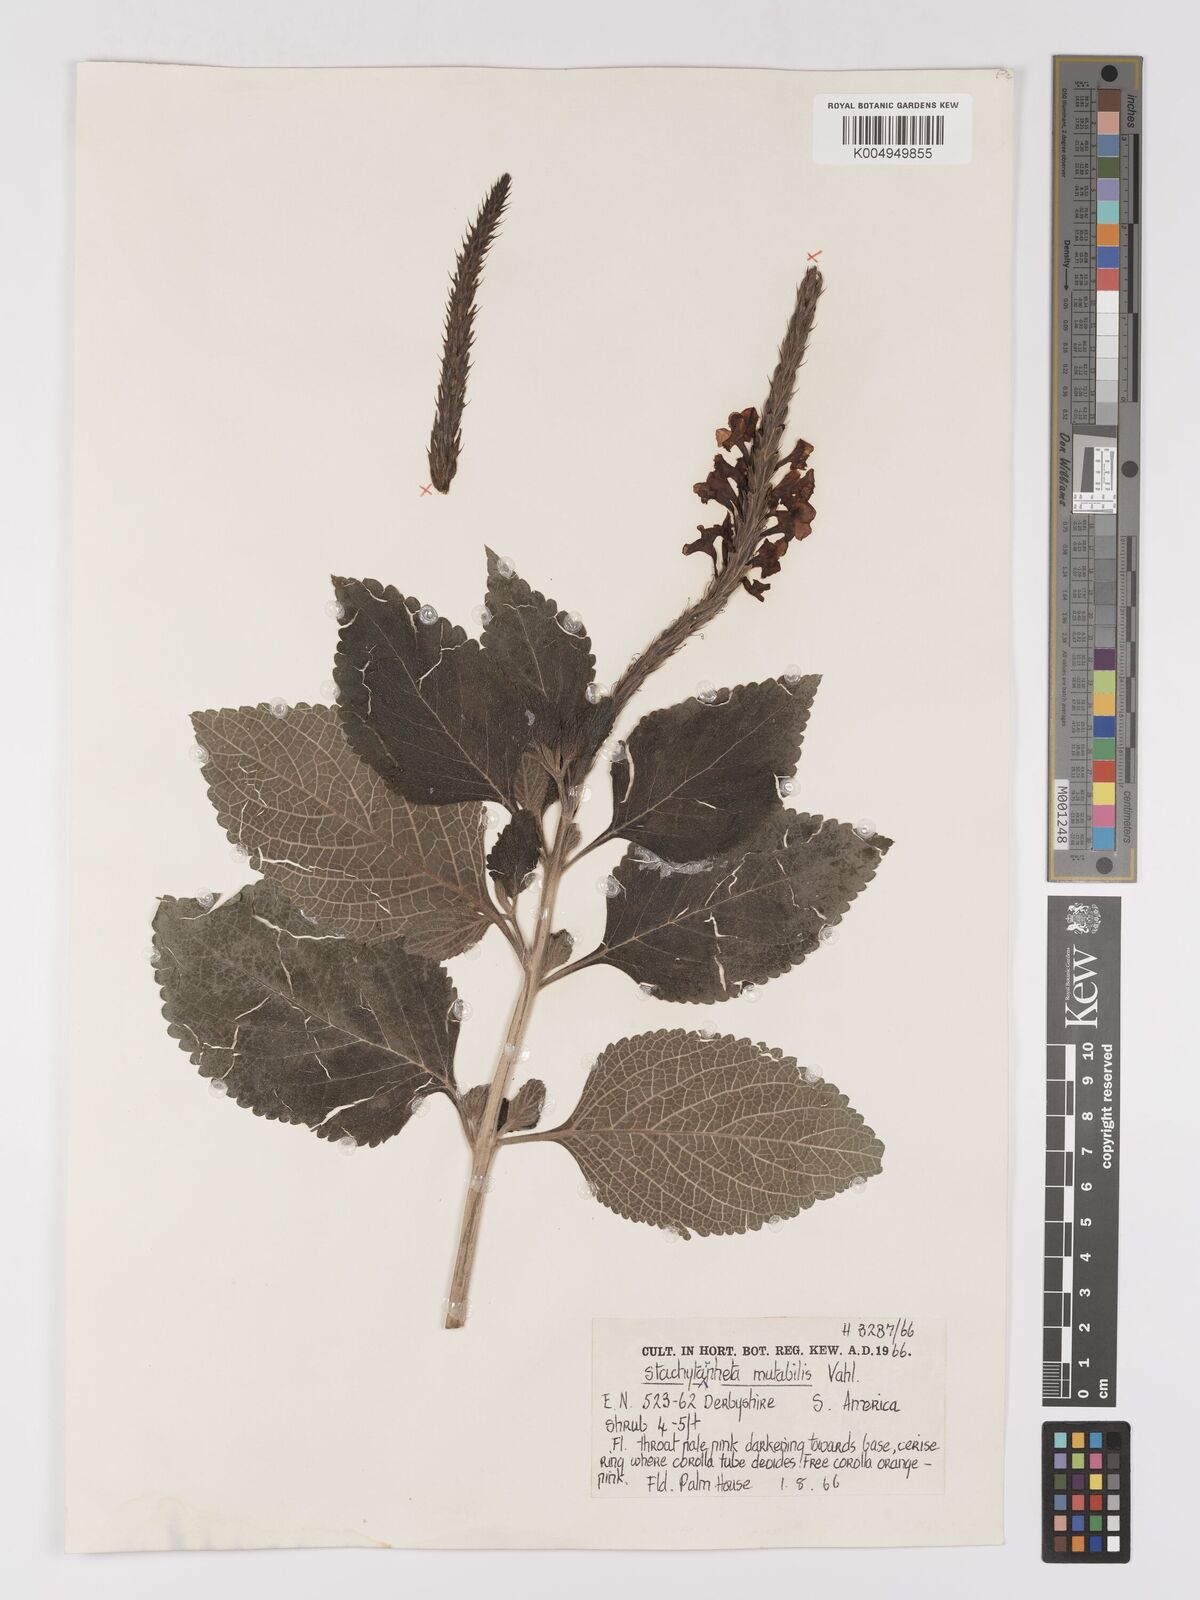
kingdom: Plantae
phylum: Tracheophyta
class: Magnoliopsida
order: Lamiales
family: Verbenaceae
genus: Stachytarpheta
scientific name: Stachytarpheta mutabilis
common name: Changeable velvetberry
